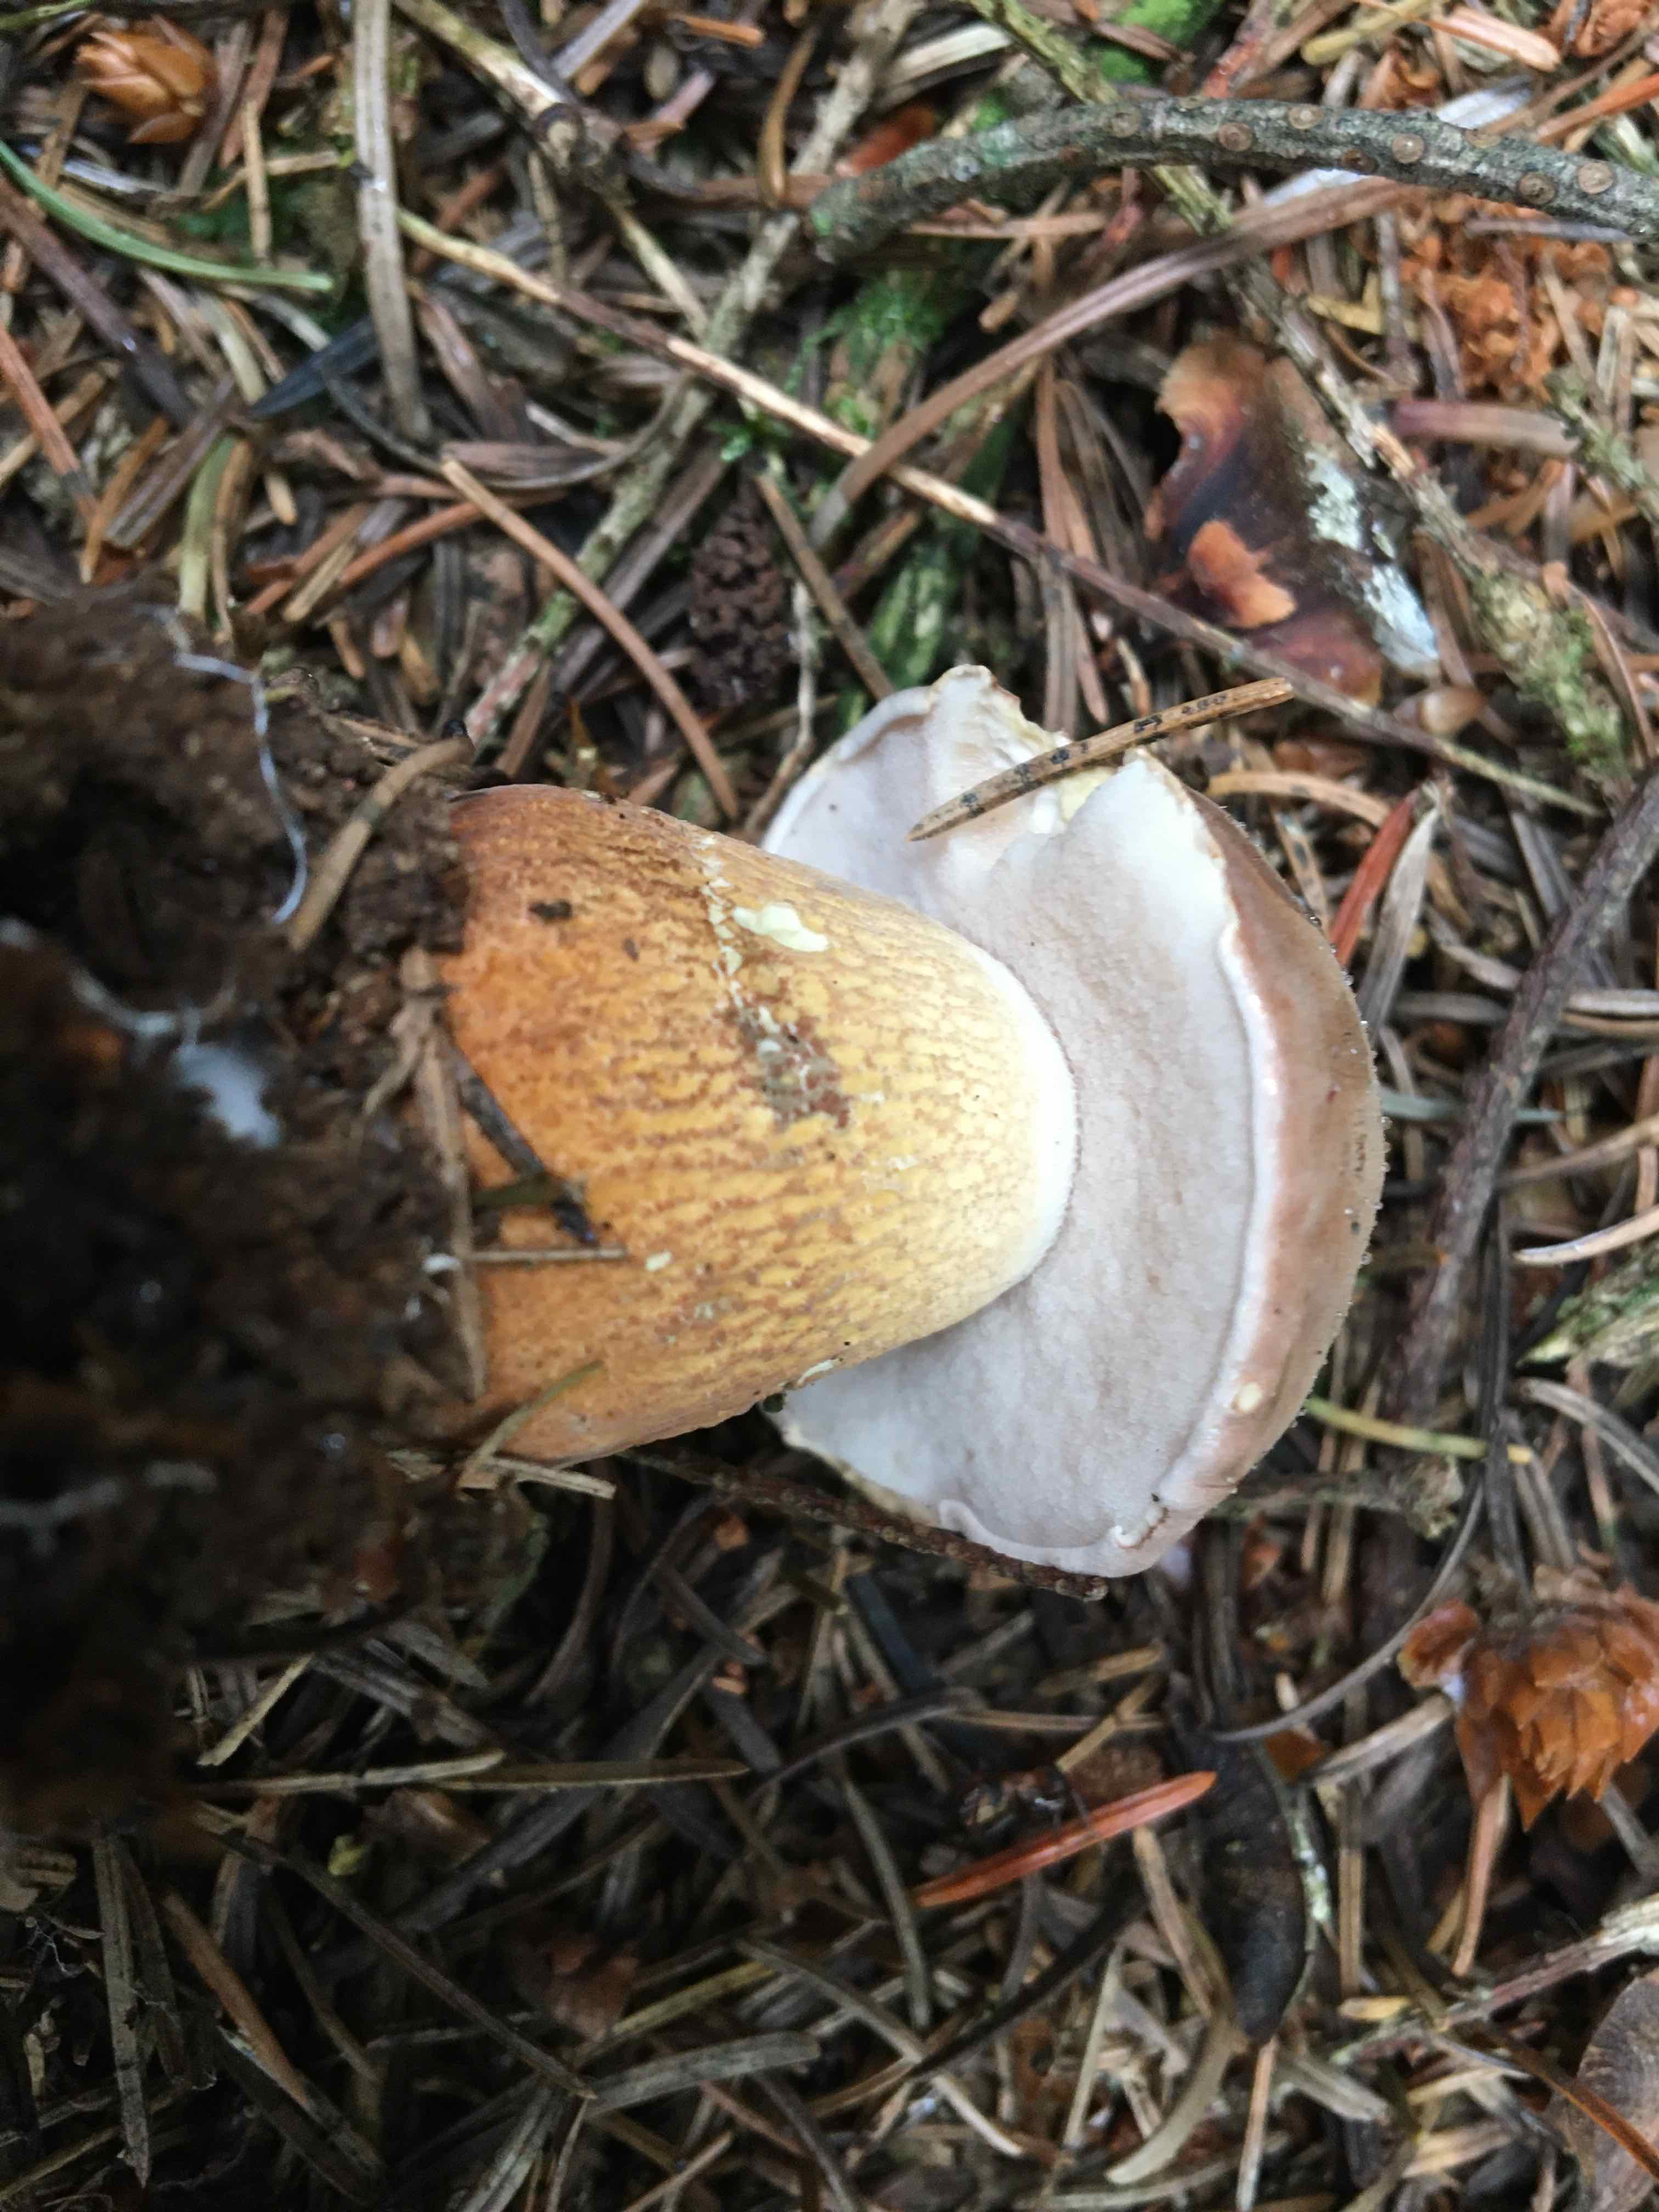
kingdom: Fungi
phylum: Basidiomycota
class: Agaricomycetes
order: Boletales
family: Boletaceae
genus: Tylopilus
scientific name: Tylopilus felleus
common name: galderørhat
